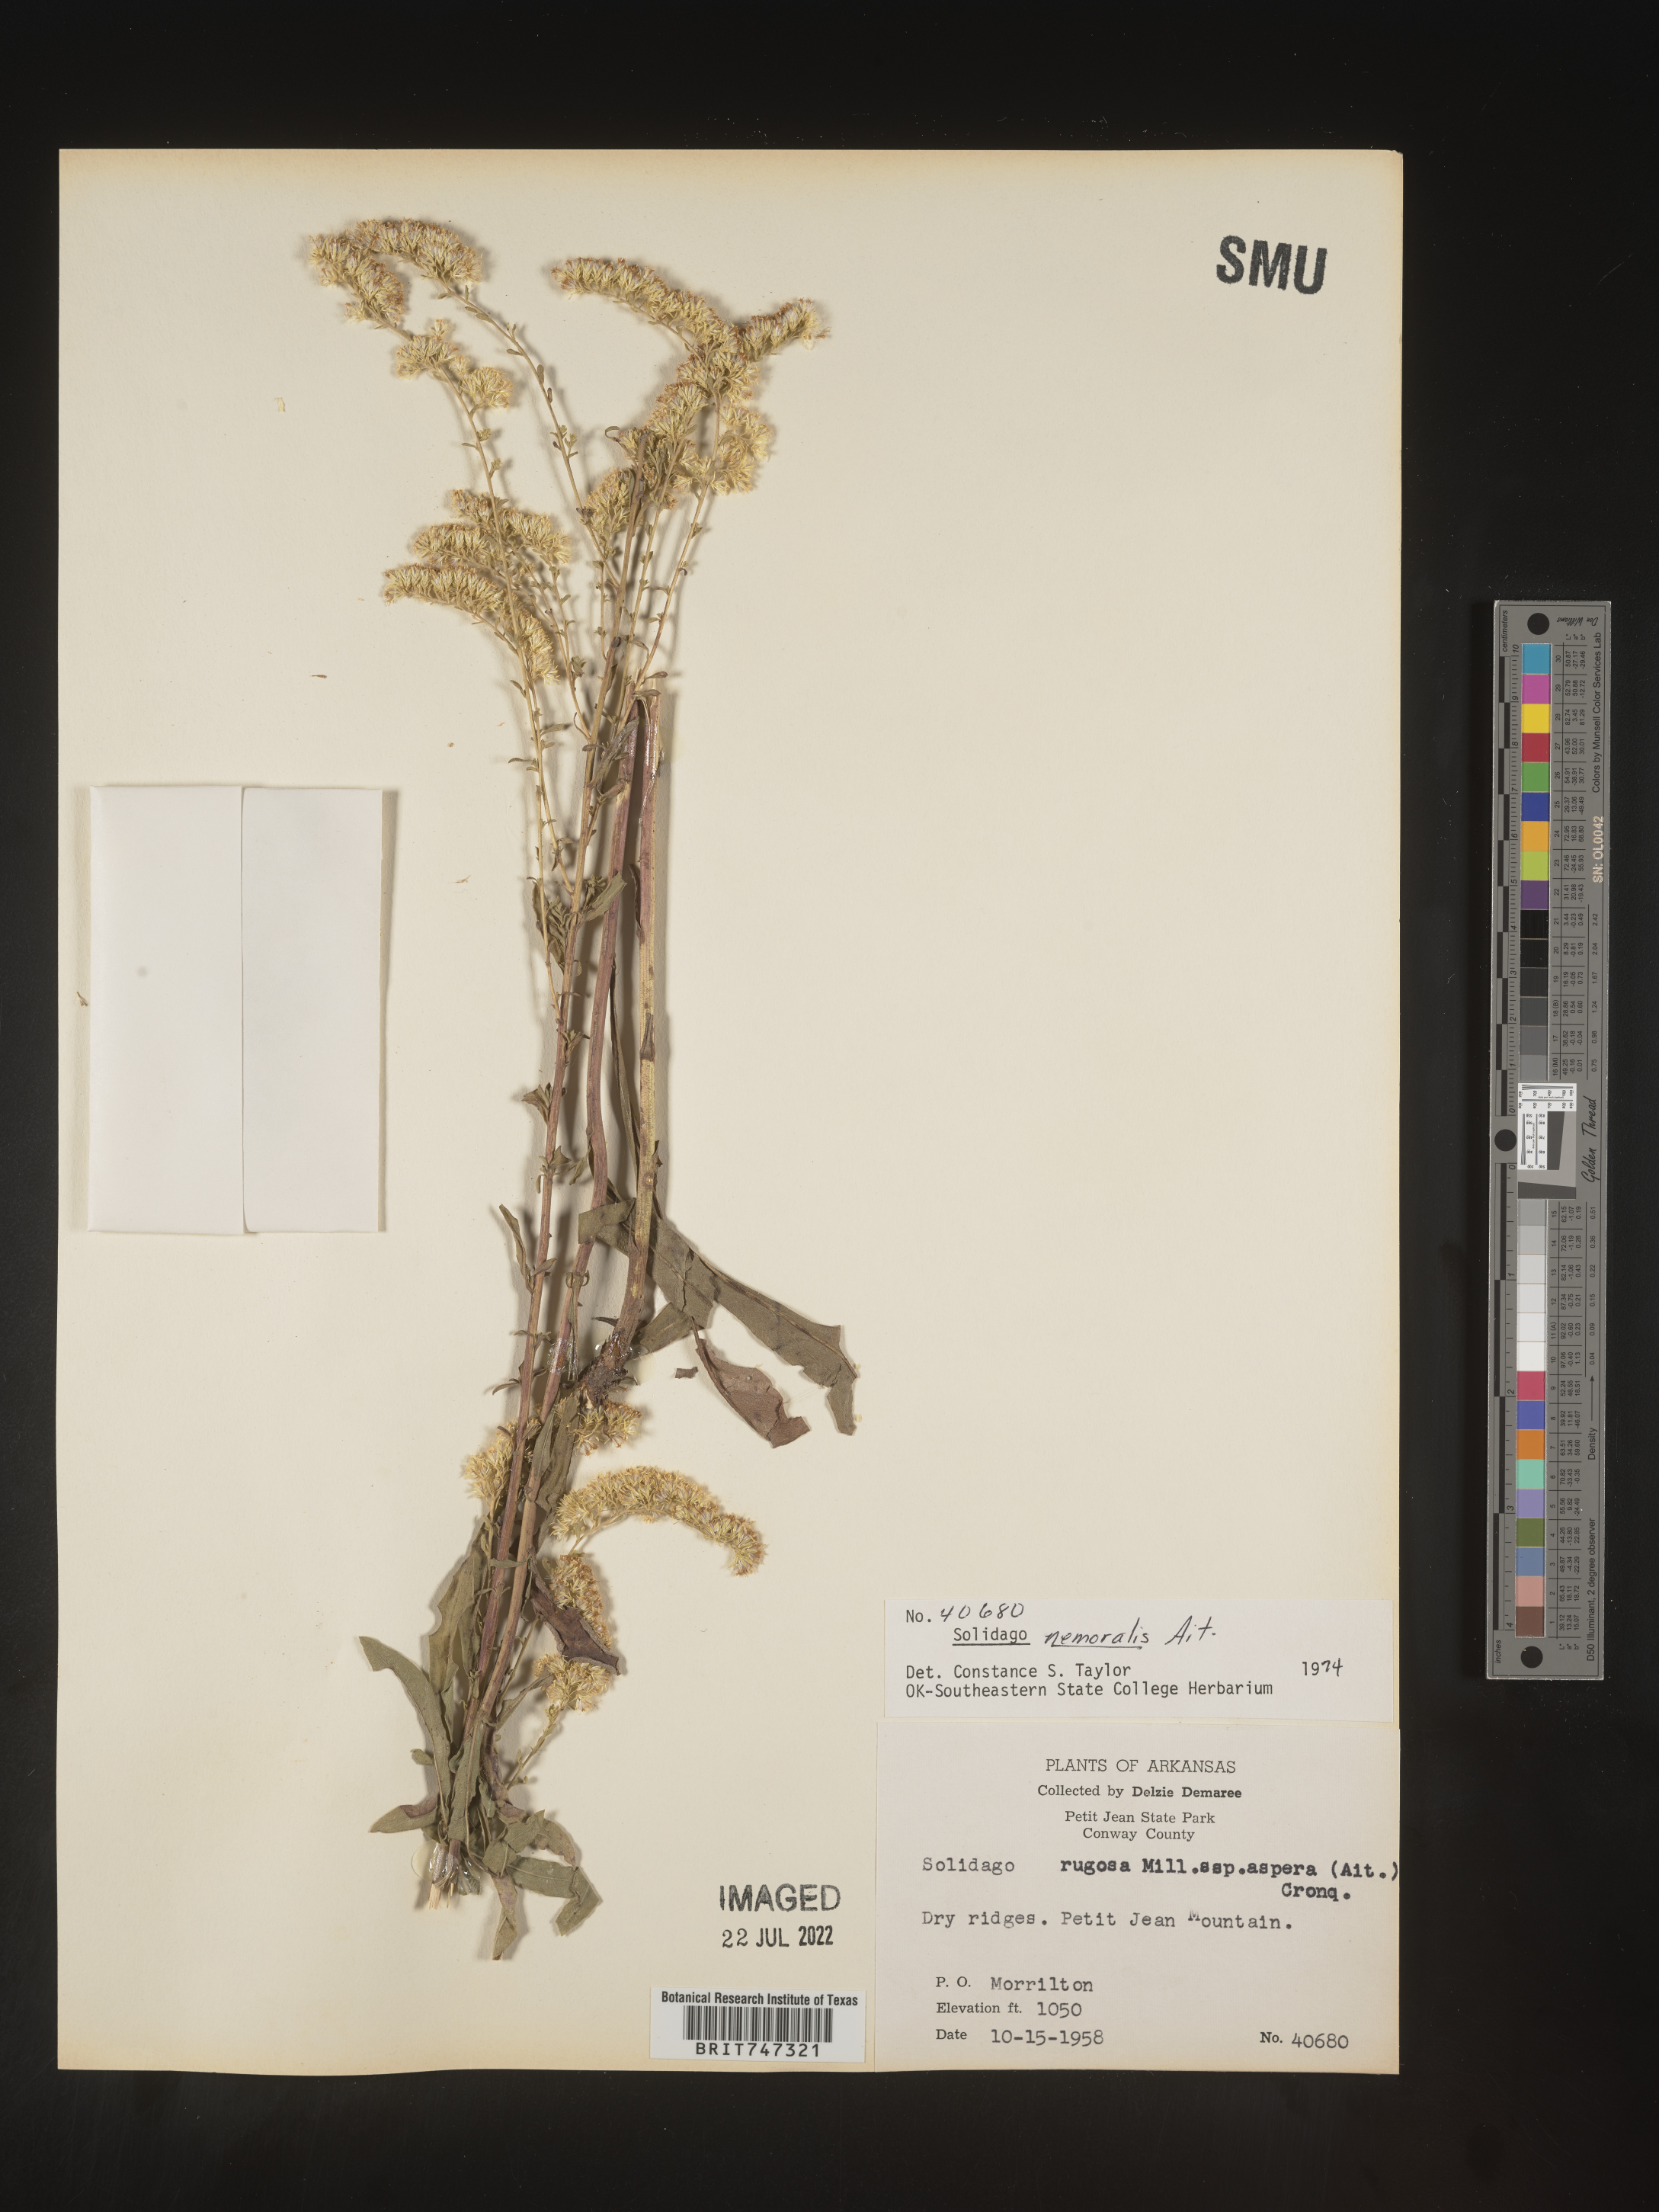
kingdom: Plantae
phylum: Tracheophyta
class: Magnoliopsida
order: Asterales
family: Asteraceae
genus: Solidago
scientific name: Solidago nemoralis
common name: Grey goldenrod
